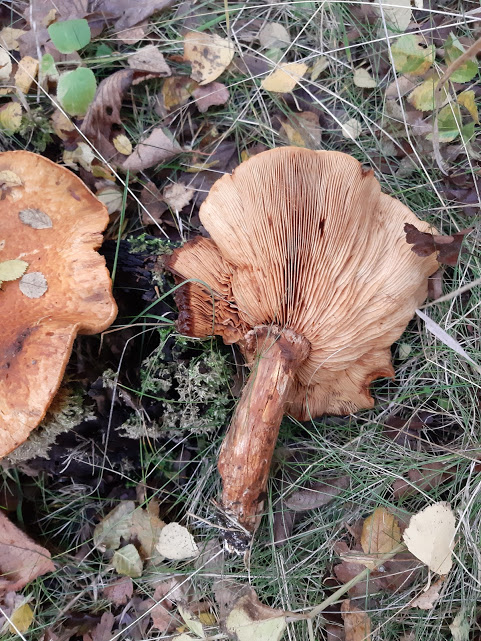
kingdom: Fungi
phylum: Basidiomycota
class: Agaricomycetes
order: Agaricales
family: Hymenogastraceae
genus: Gymnopilus
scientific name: Gymnopilus spectabilis
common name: fibret flammehat
